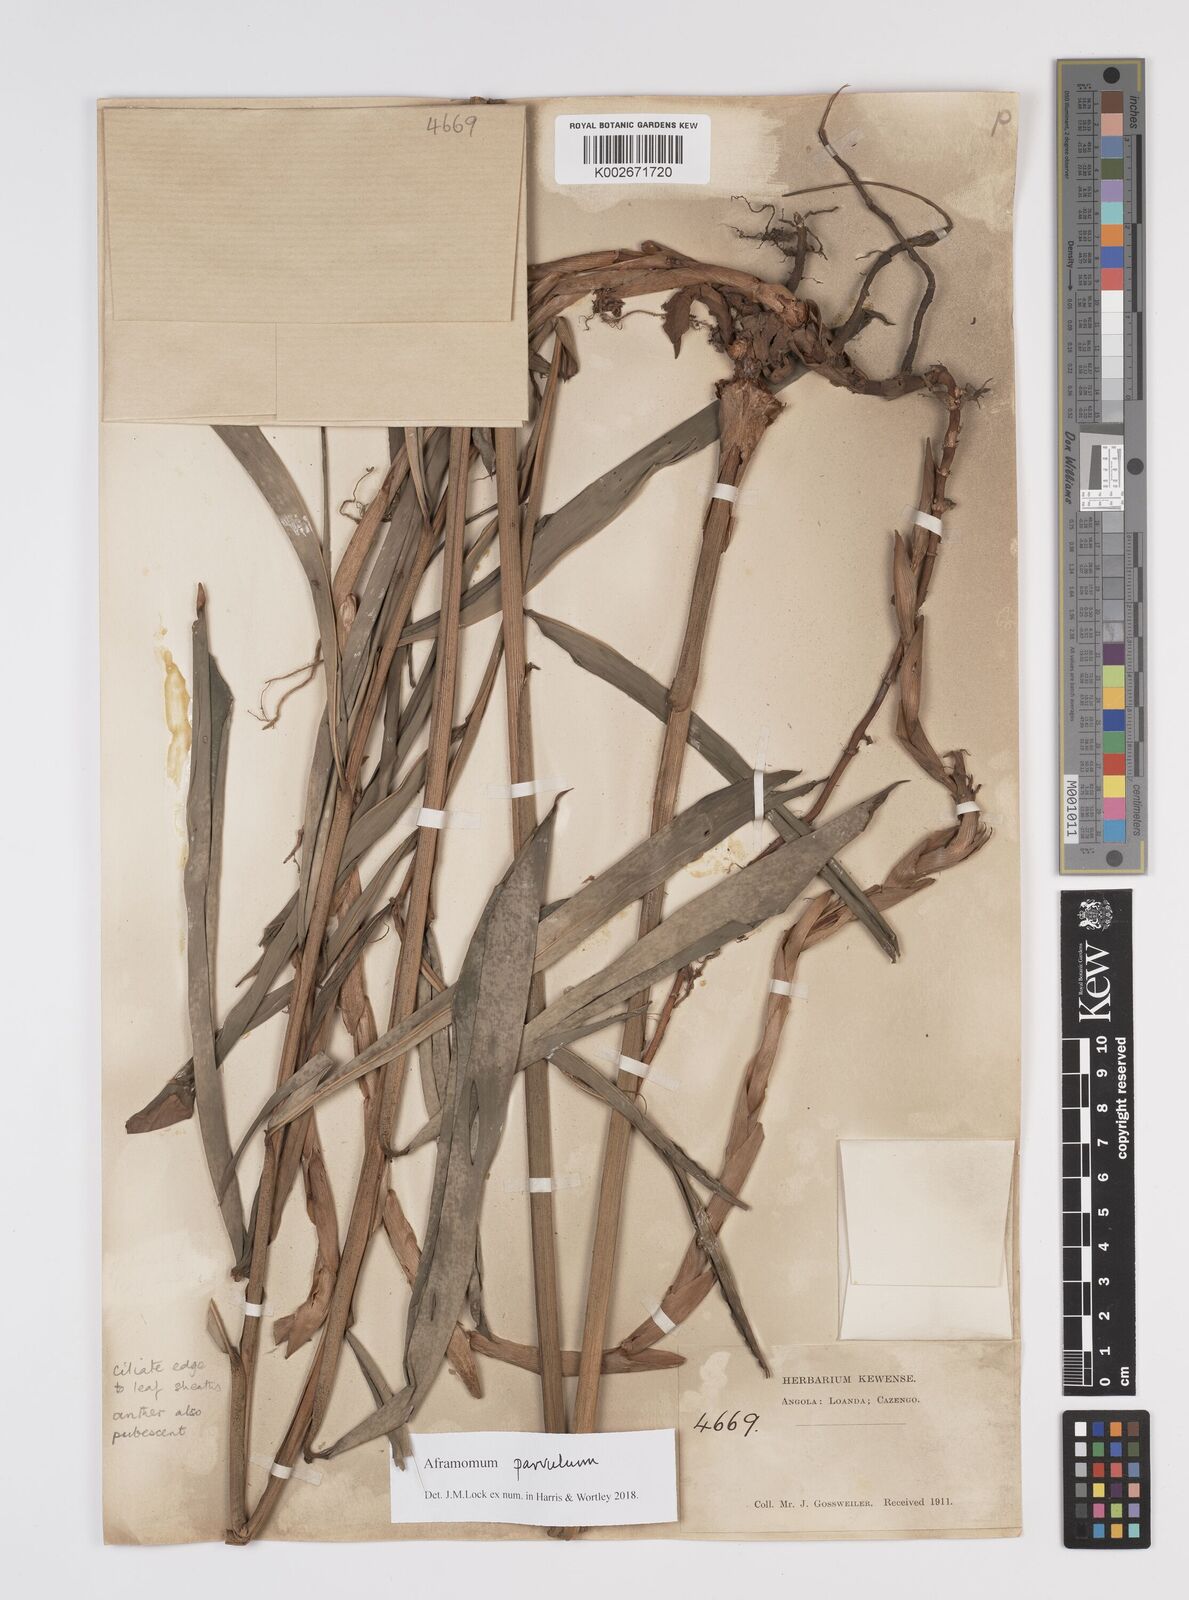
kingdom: Plantae
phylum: Tracheophyta
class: Liliopsida
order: Zingiberales
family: Zingiberaceae
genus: Aframomum
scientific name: Aframomum parvulum
